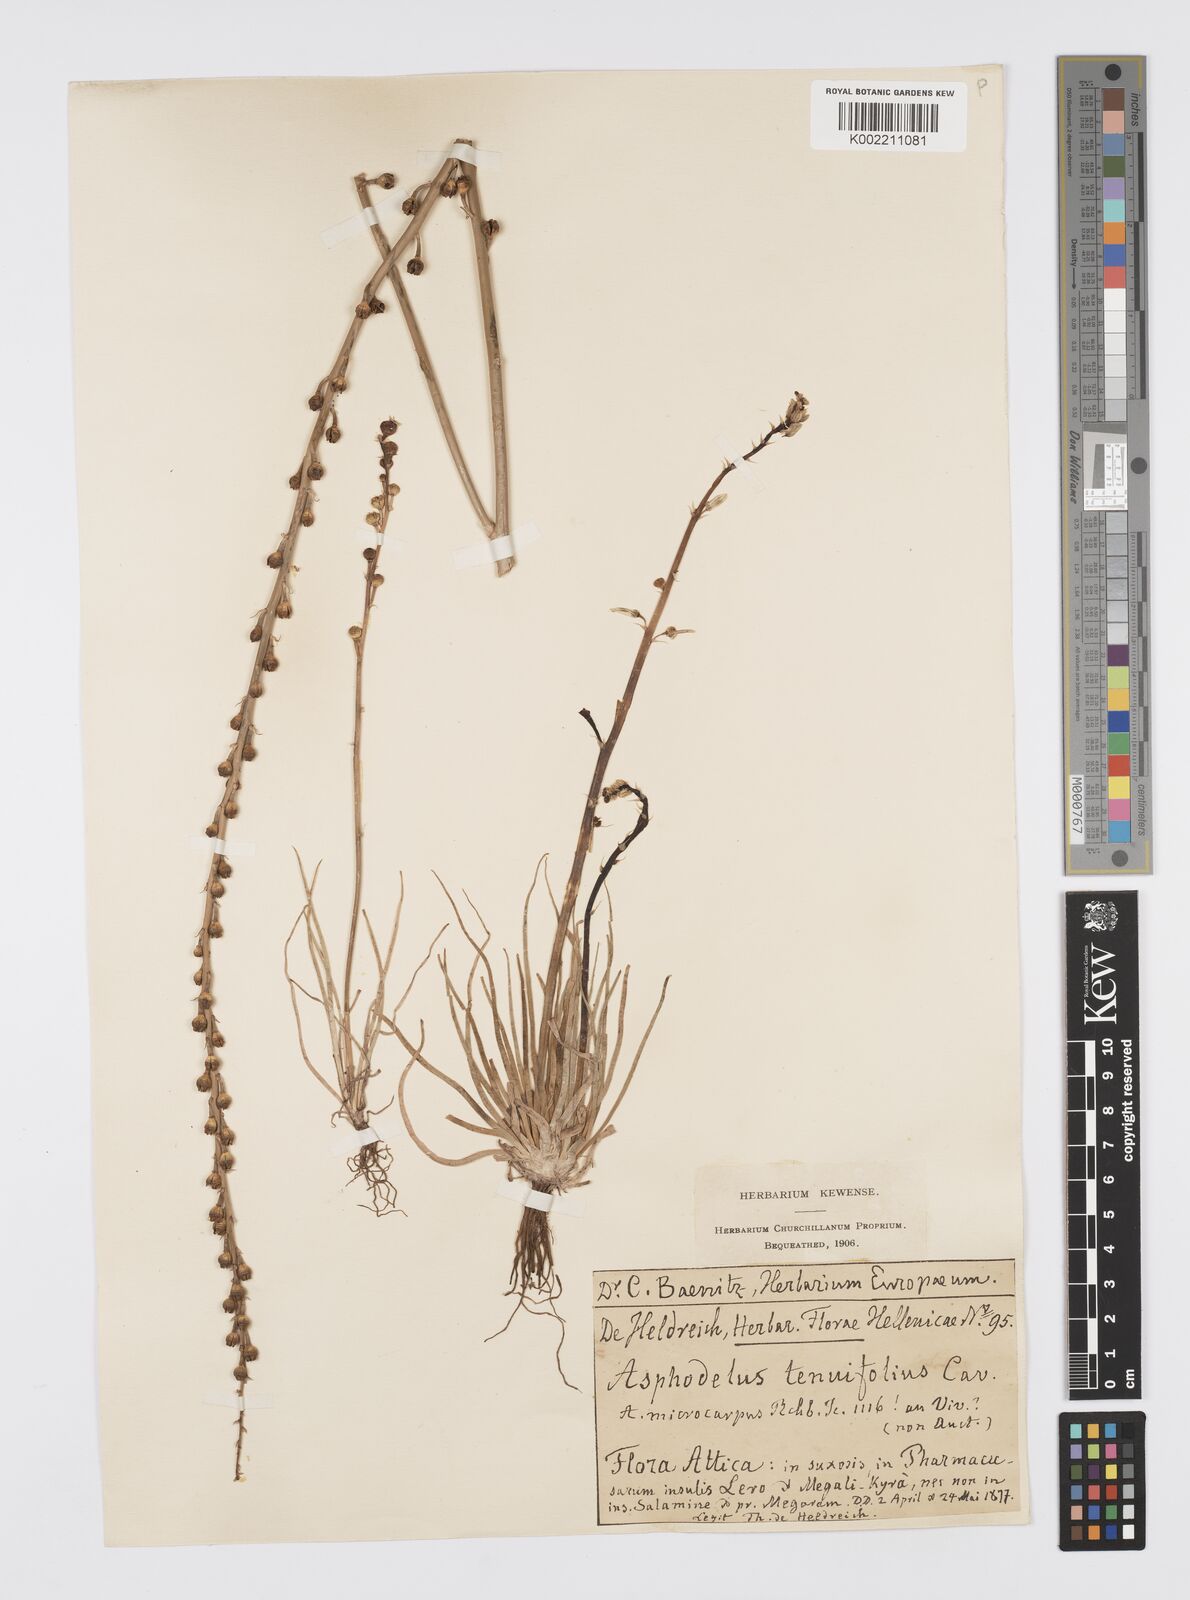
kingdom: Plantae
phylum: Tracheophyta
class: Liliopsida
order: Asparagales
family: Asphodelaceae
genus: Asphodelus
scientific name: Asphodelus tenuifolius
